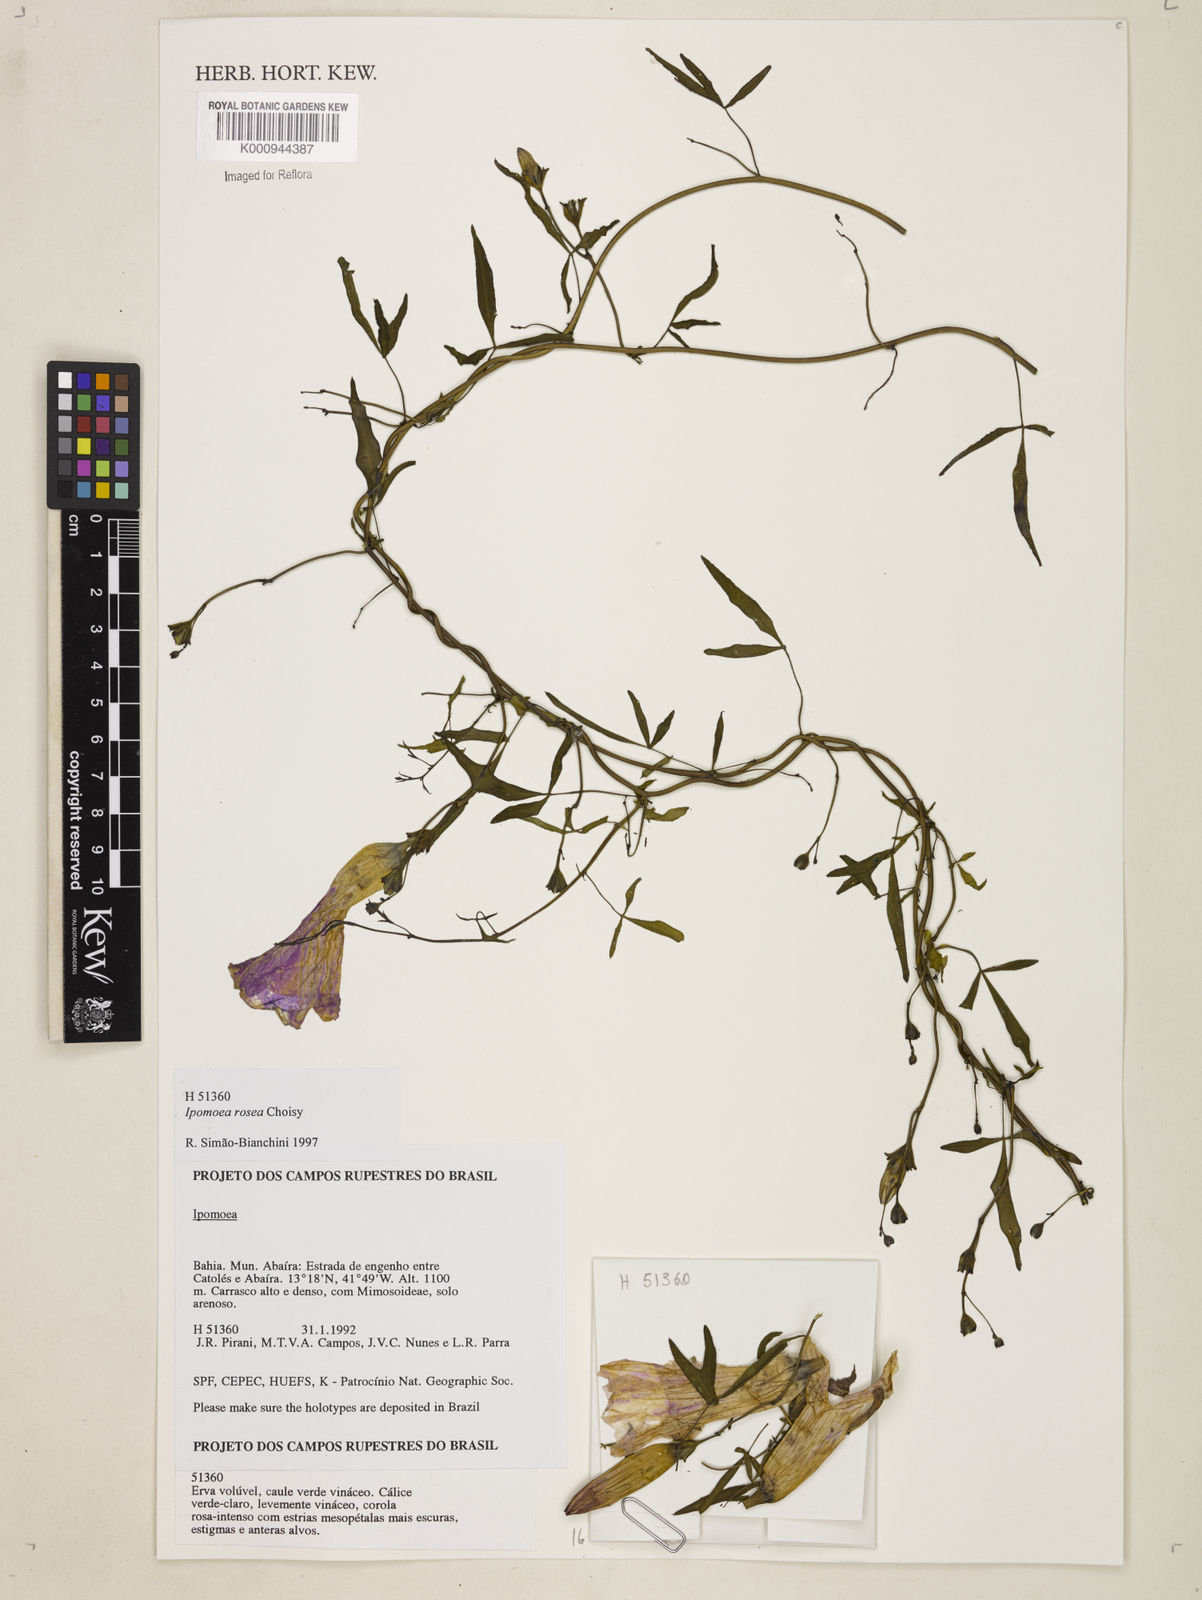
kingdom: Plantae
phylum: Tracheophyta
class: Magnoliopsida
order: Solanales
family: Convolvulaceae
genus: Ipomoea
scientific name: Ipomoea rosea
